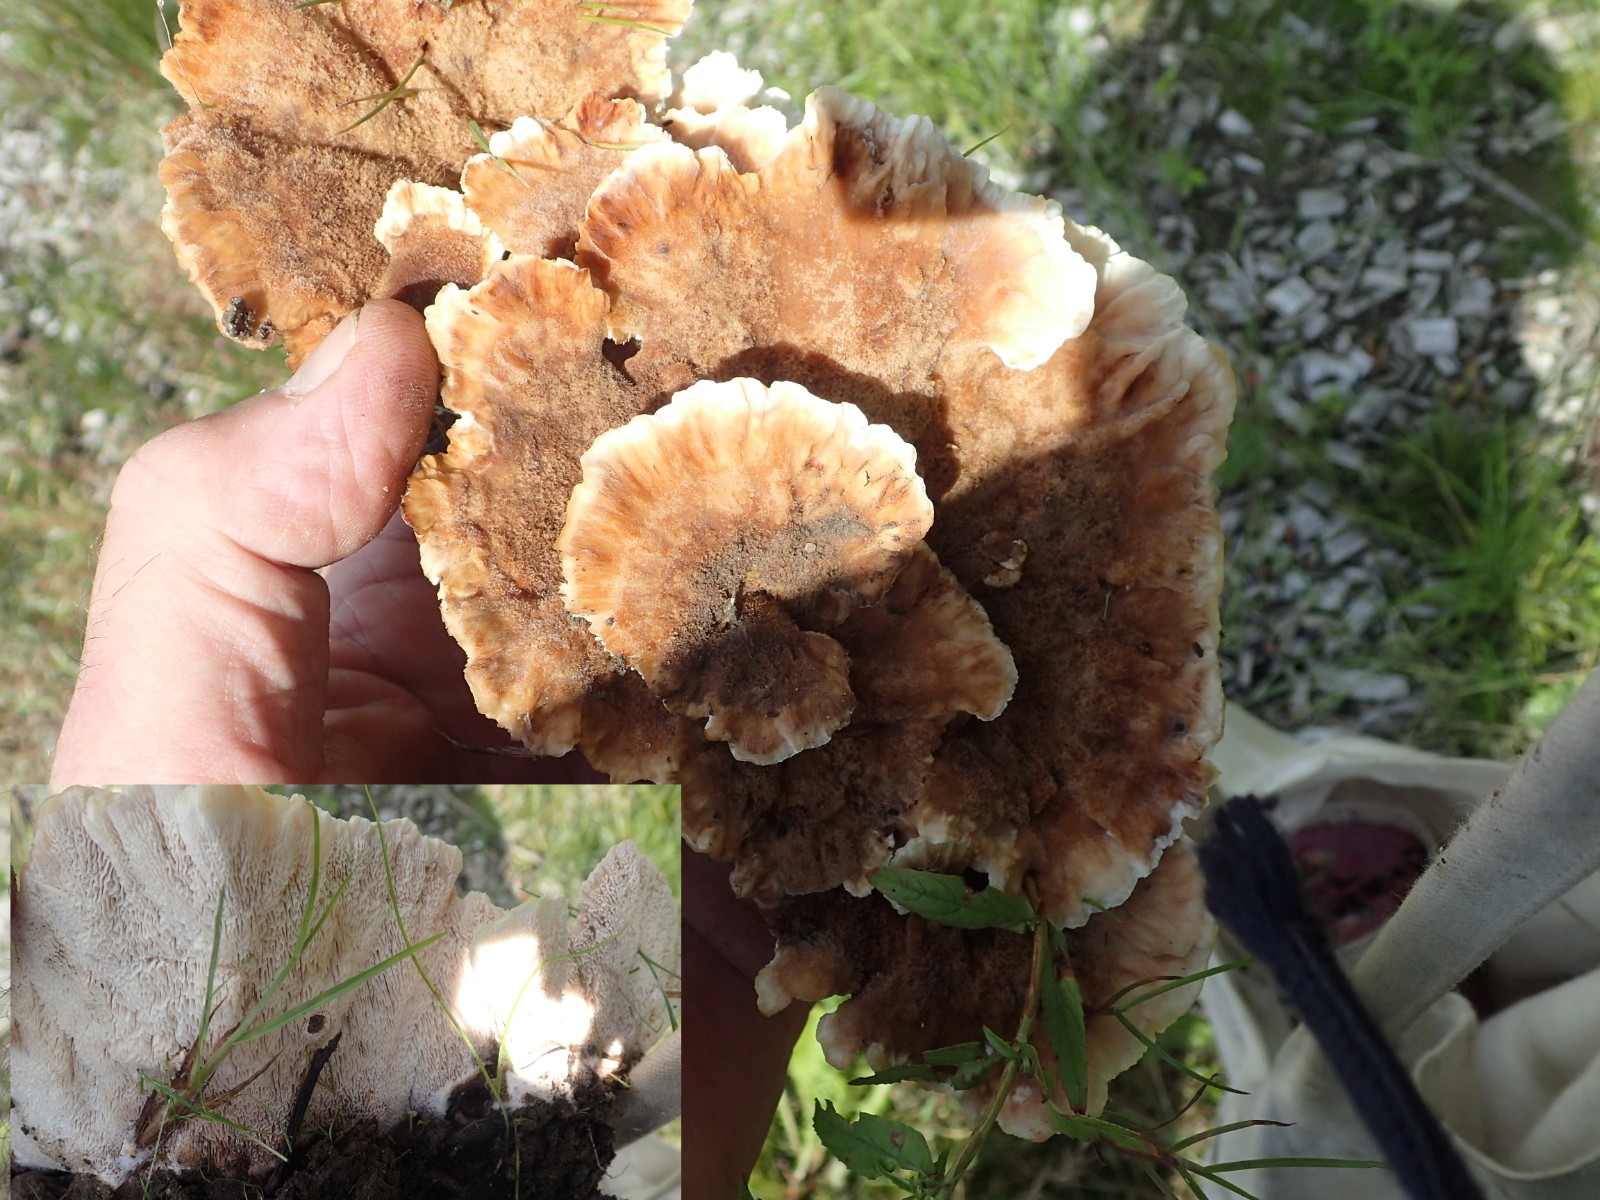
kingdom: Fungi
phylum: Basidiomycota
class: Agaricomycetes
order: Polyporales
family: Podoscyphaceae
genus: Abortiporus
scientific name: Abortiporus biennis
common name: rødmende pjalteporesvamp
